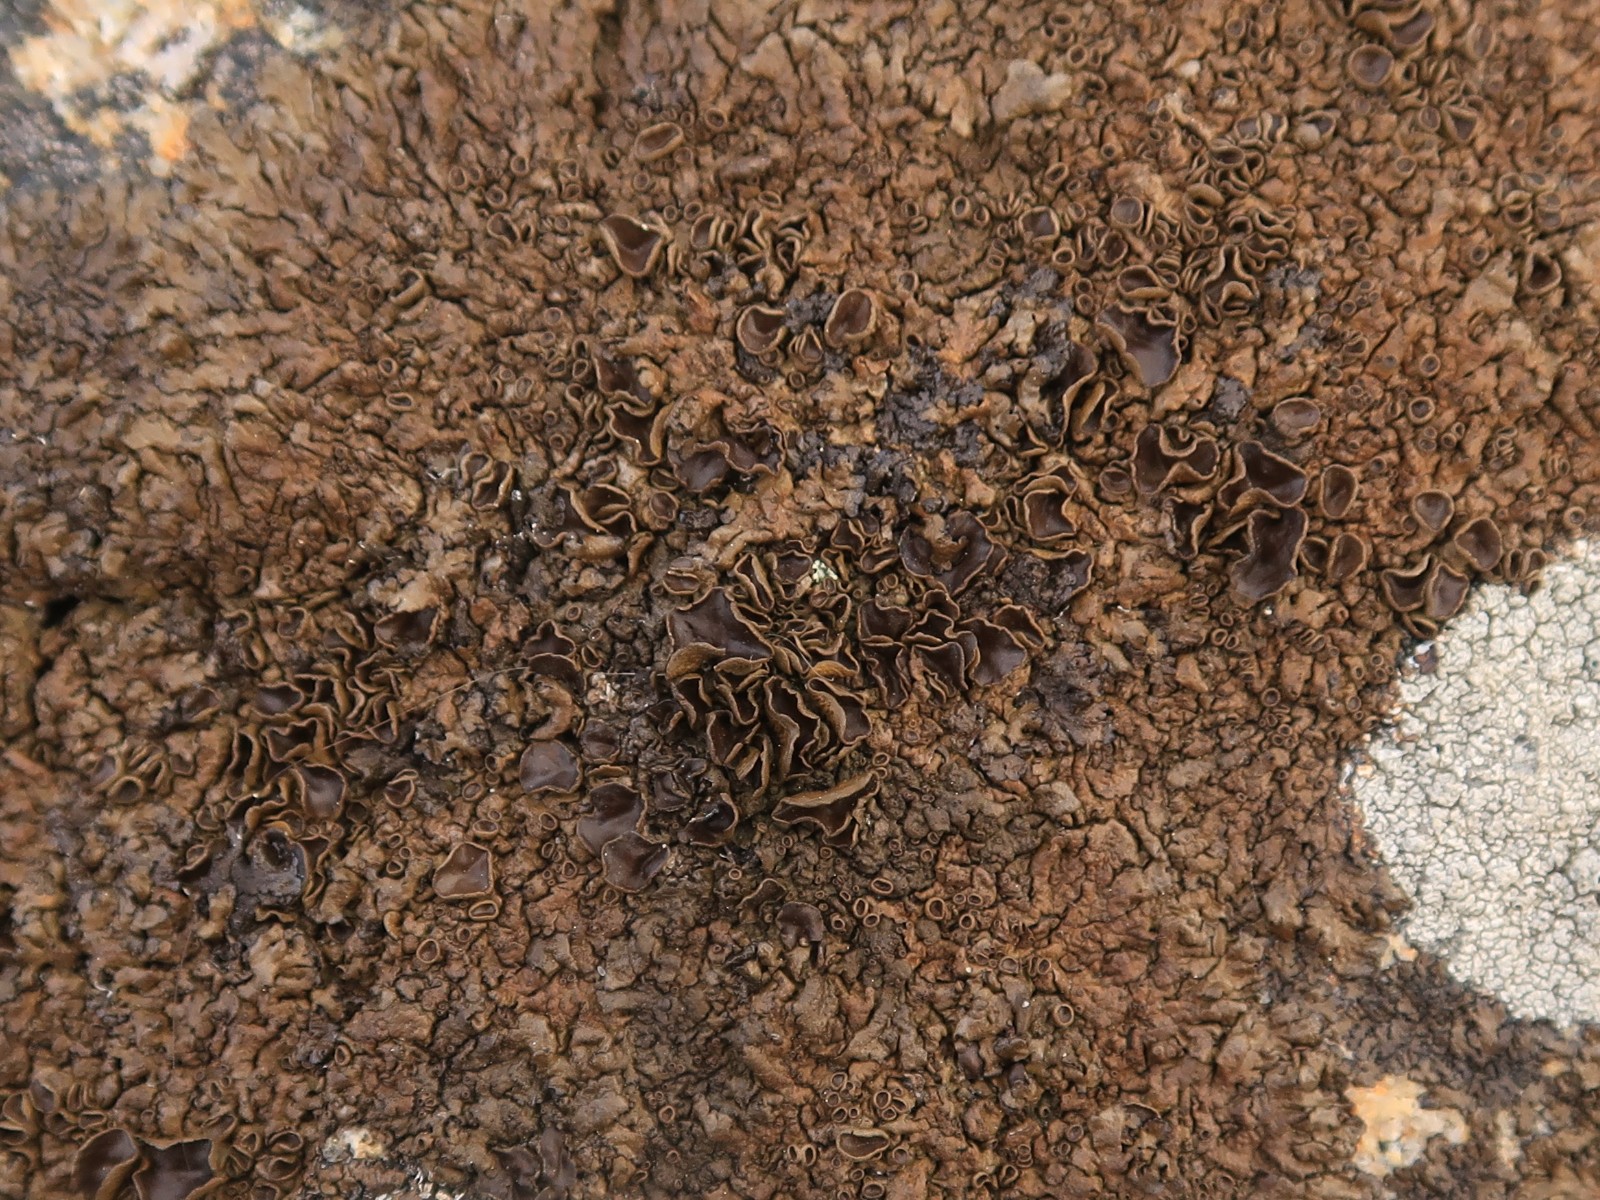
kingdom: Fungi
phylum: Ascomycota
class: Lecanoromycetes
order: Lecanorales
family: Parmeliaceae
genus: Xanthoparmelia
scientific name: Xanthoparmelia pulla
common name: mørkebrun skållav
